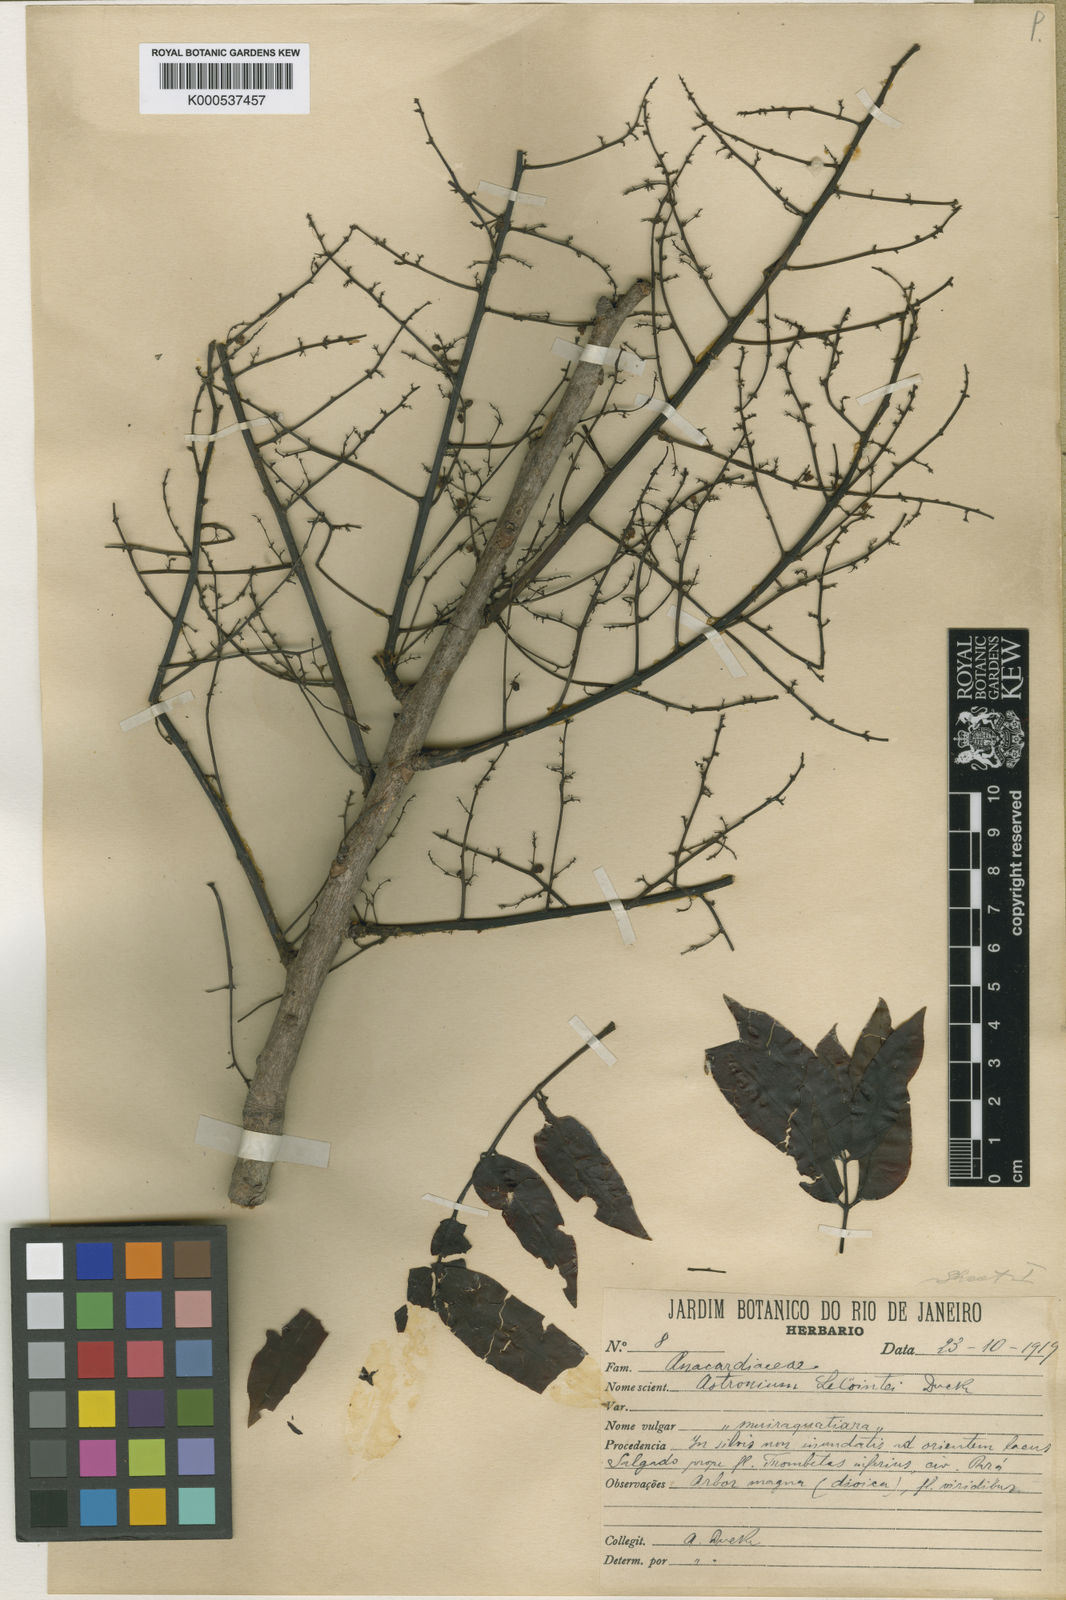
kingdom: Plantae
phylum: Tracheophyta
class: Magnoliopsida
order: Sapindales
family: Anacardiaceae
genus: Astronium
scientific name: Astronium lecointei
